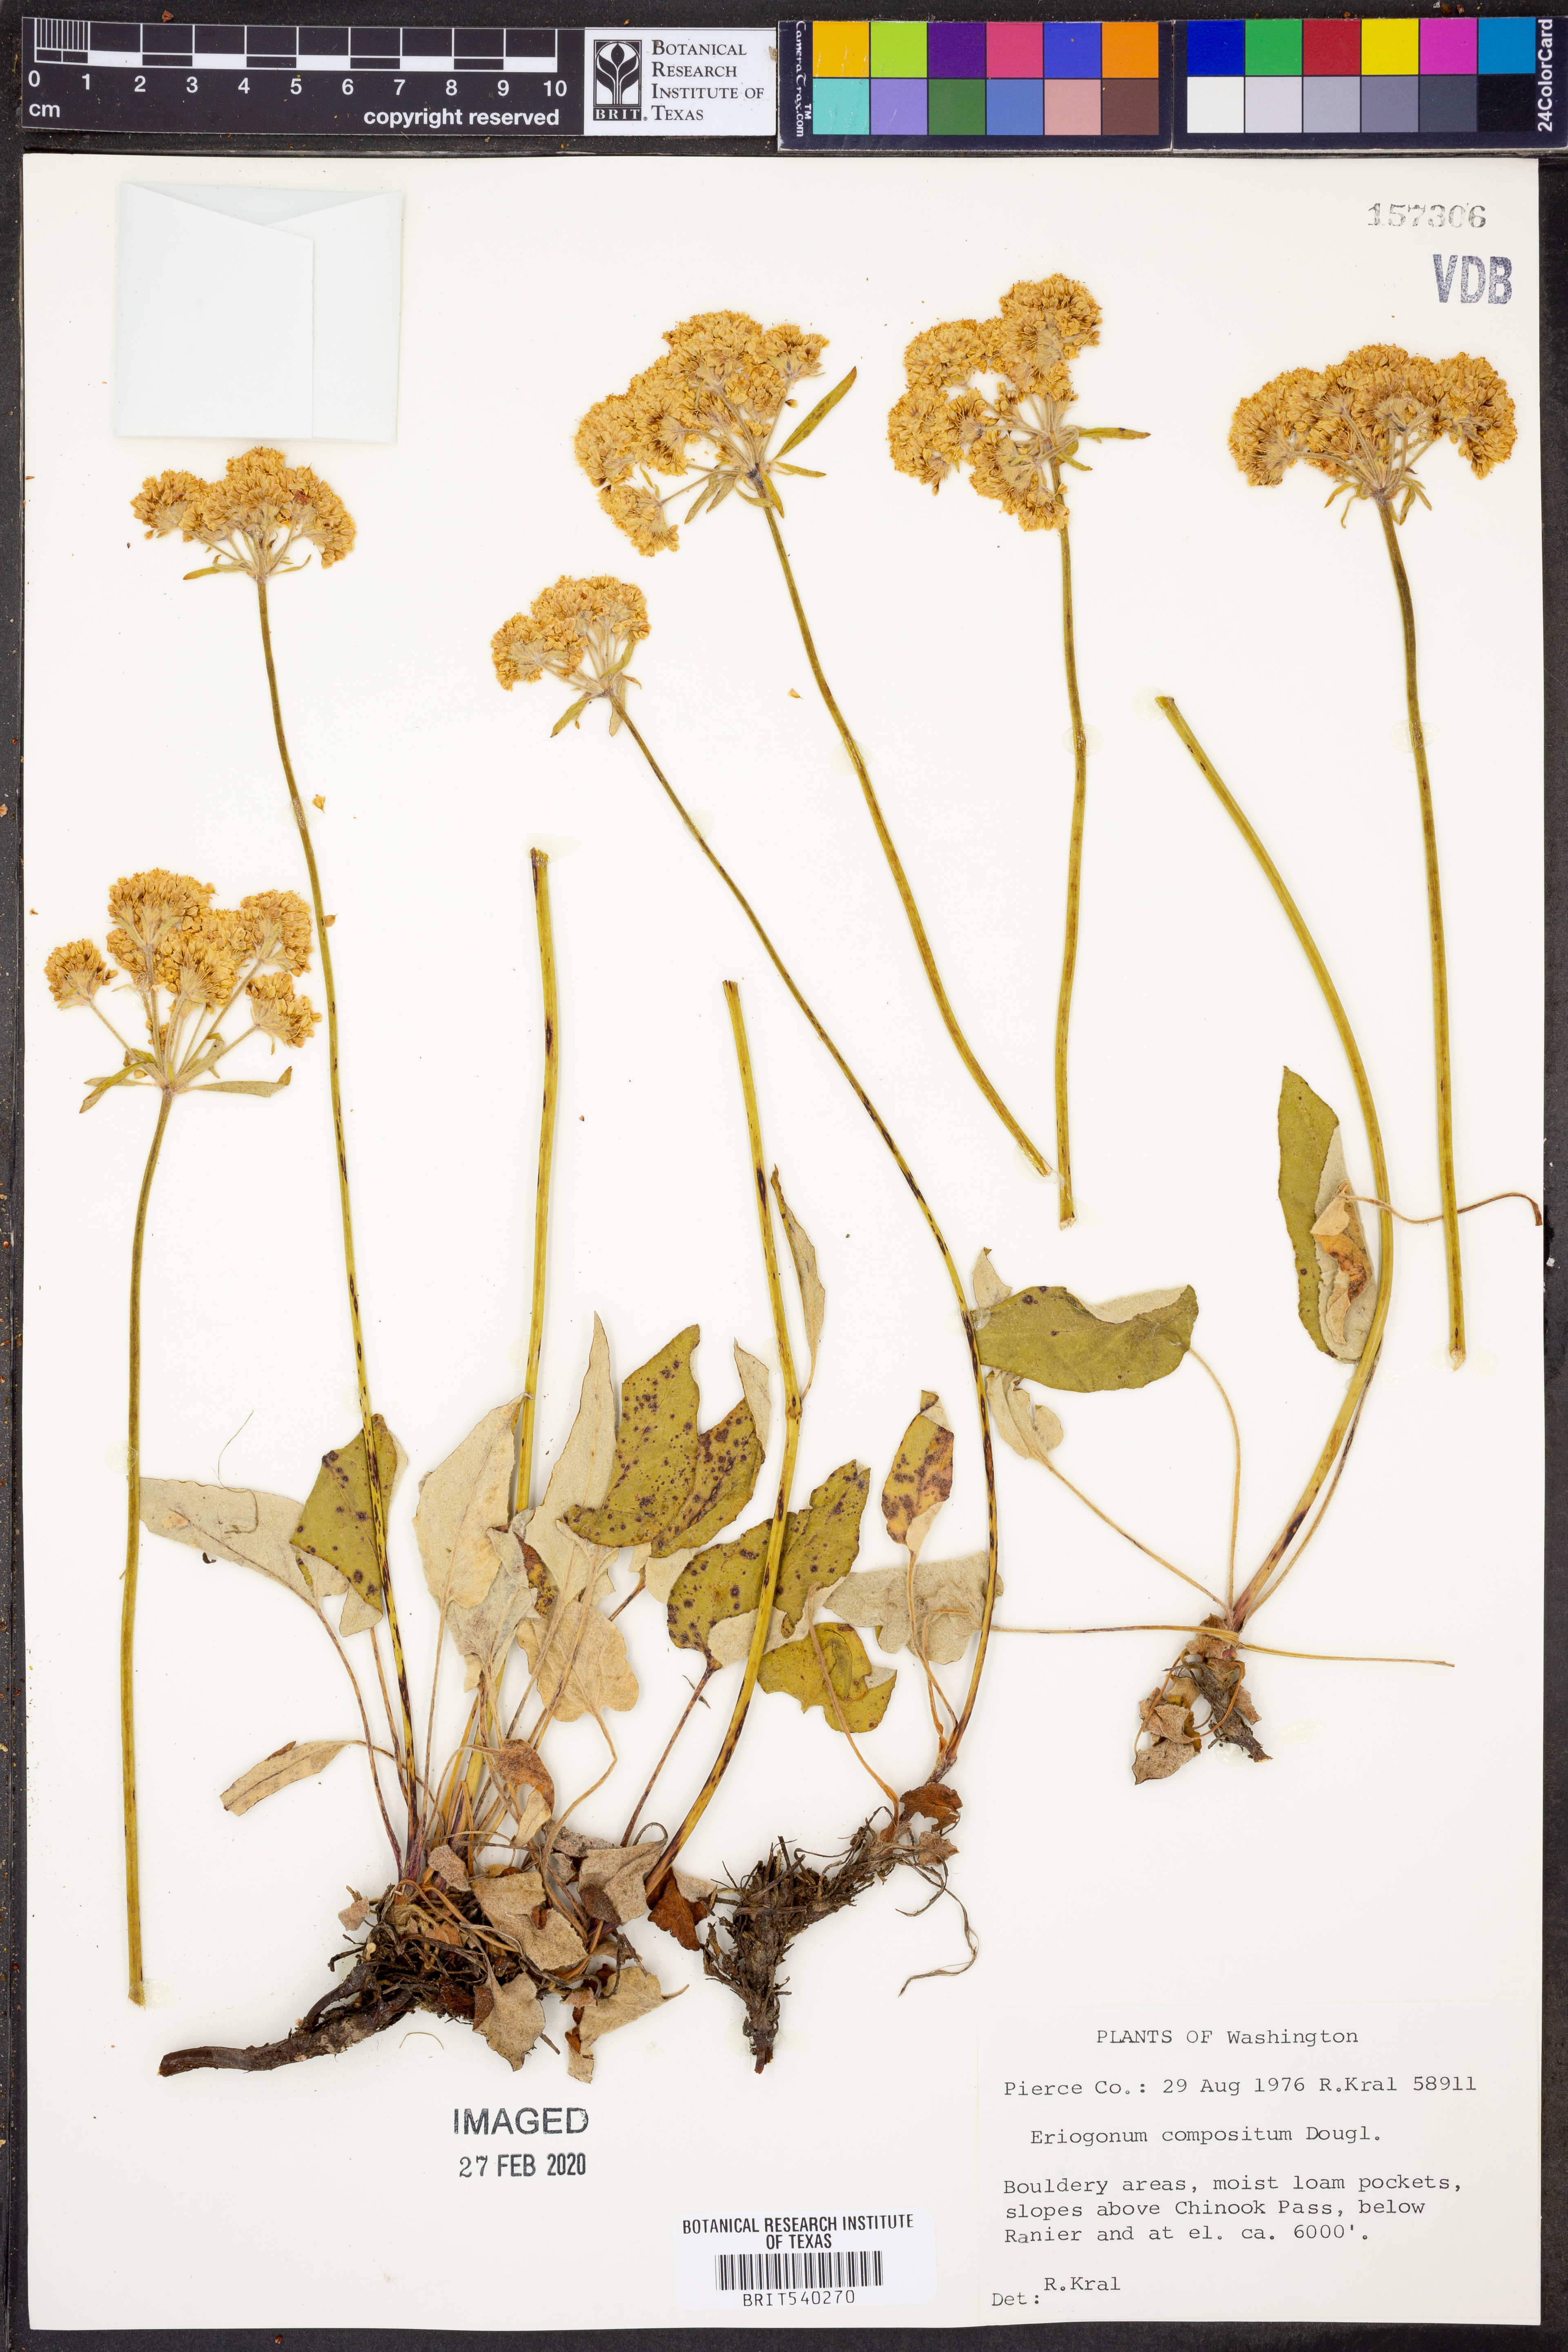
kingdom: Plantae
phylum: Tracheophyta
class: Magnoliopsida
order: Caryophyllales
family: Polygonaceae
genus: Eriogonum
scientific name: Eriogonum compositum
